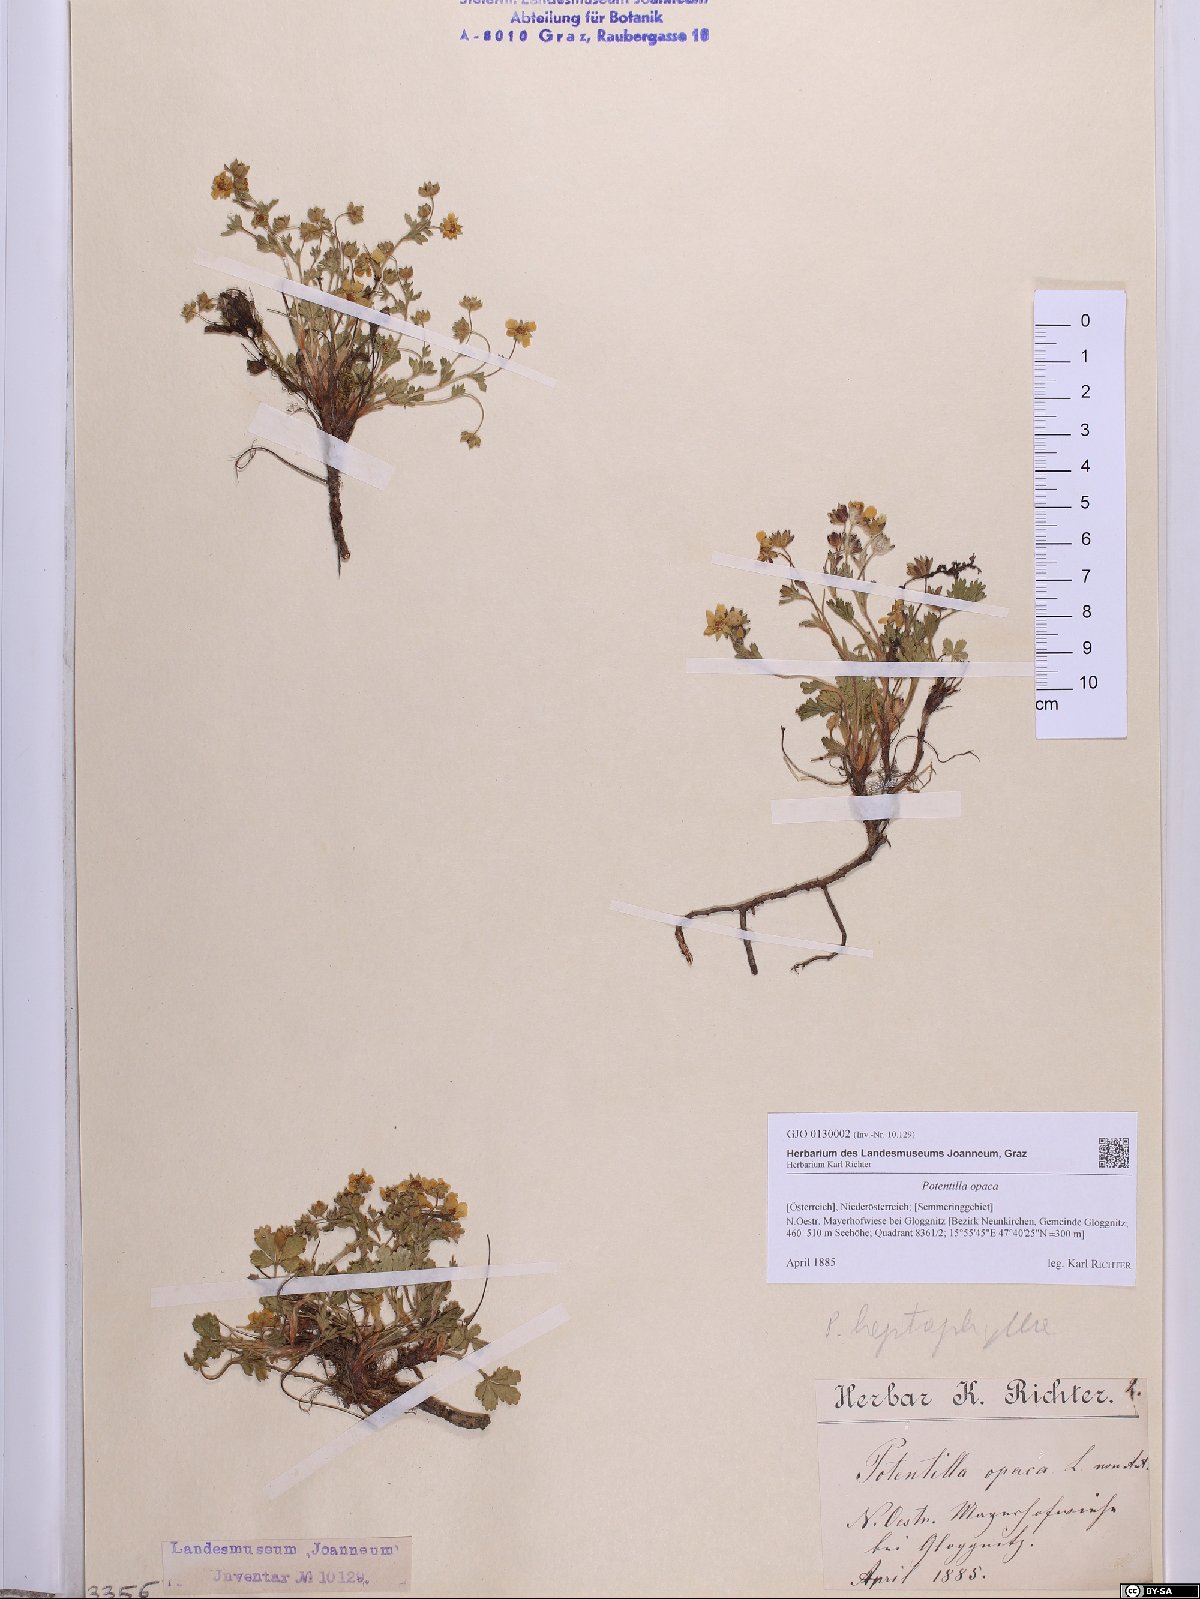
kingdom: Plantae
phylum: Tracheophyta
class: Magnoliopsida
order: Rosales
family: Rosaceae
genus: Potentilla
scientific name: Potentilla
